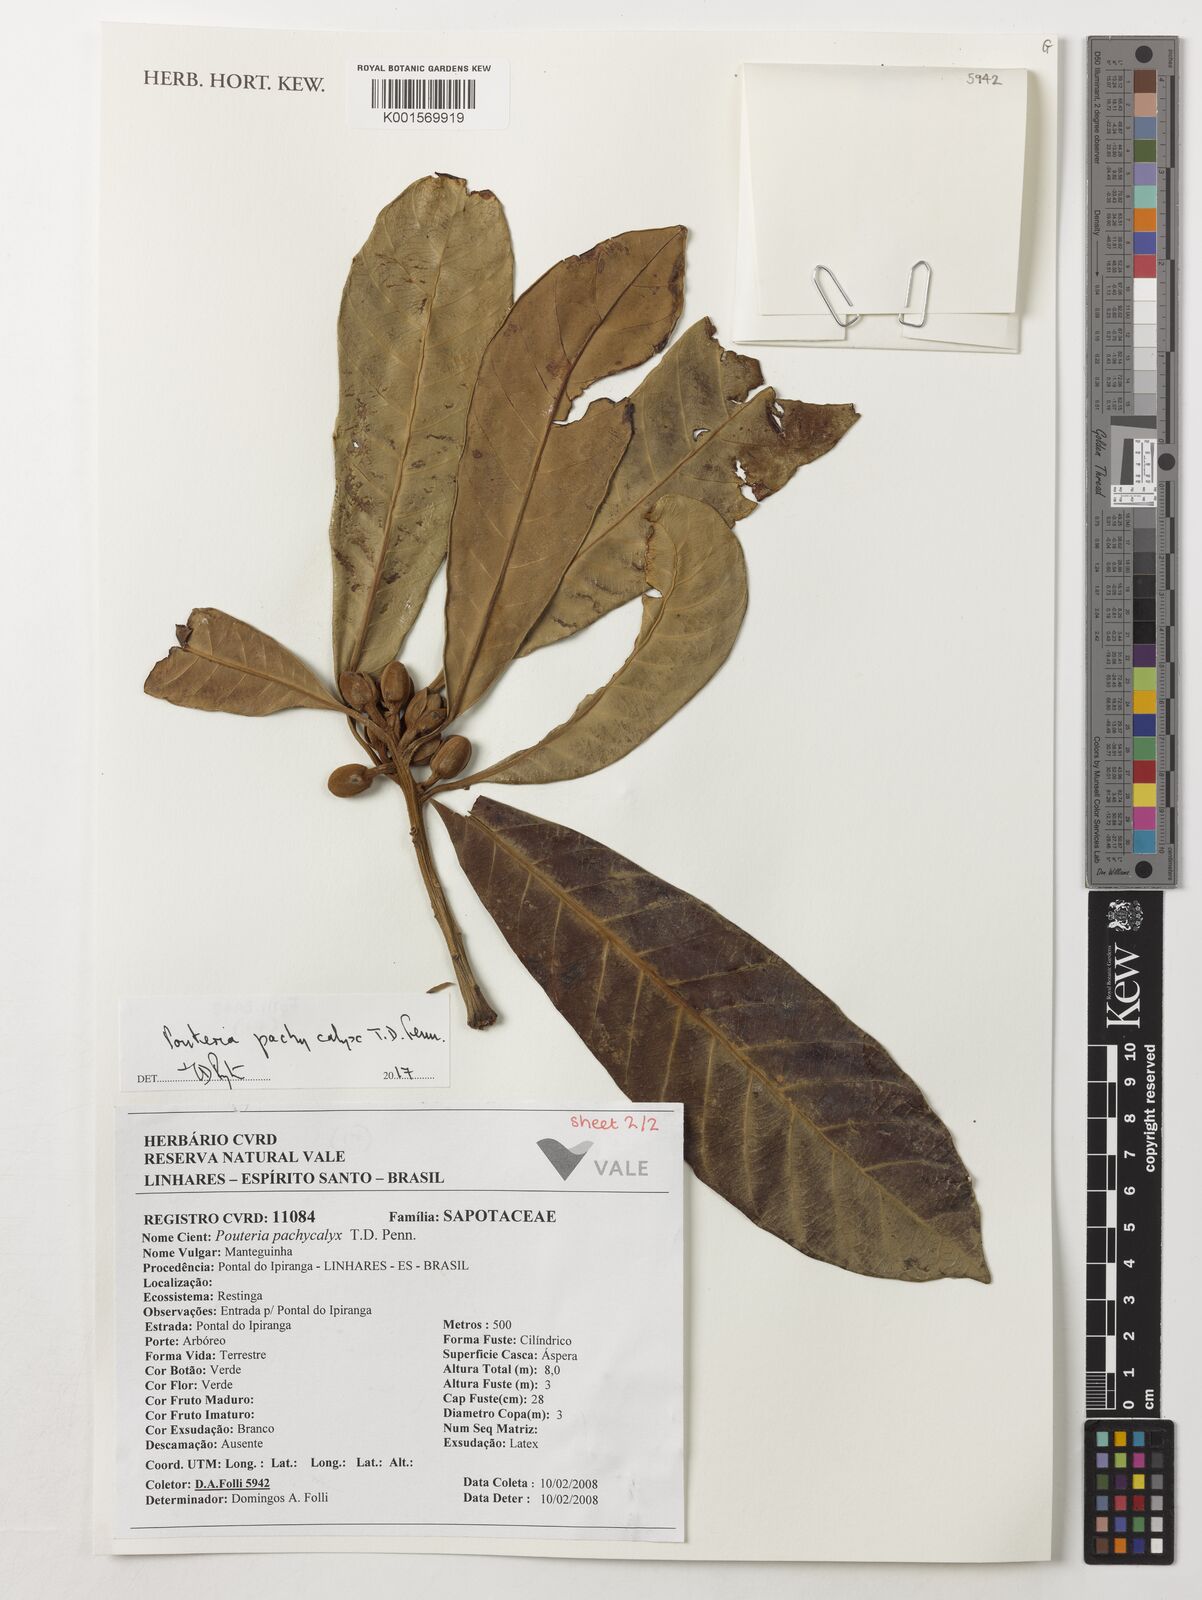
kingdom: Plantae
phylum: Tracheophyta
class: Magnoliopsida
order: Ericales
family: Sapotaceae
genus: Pouteria
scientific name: Pouteria pachycalyx
